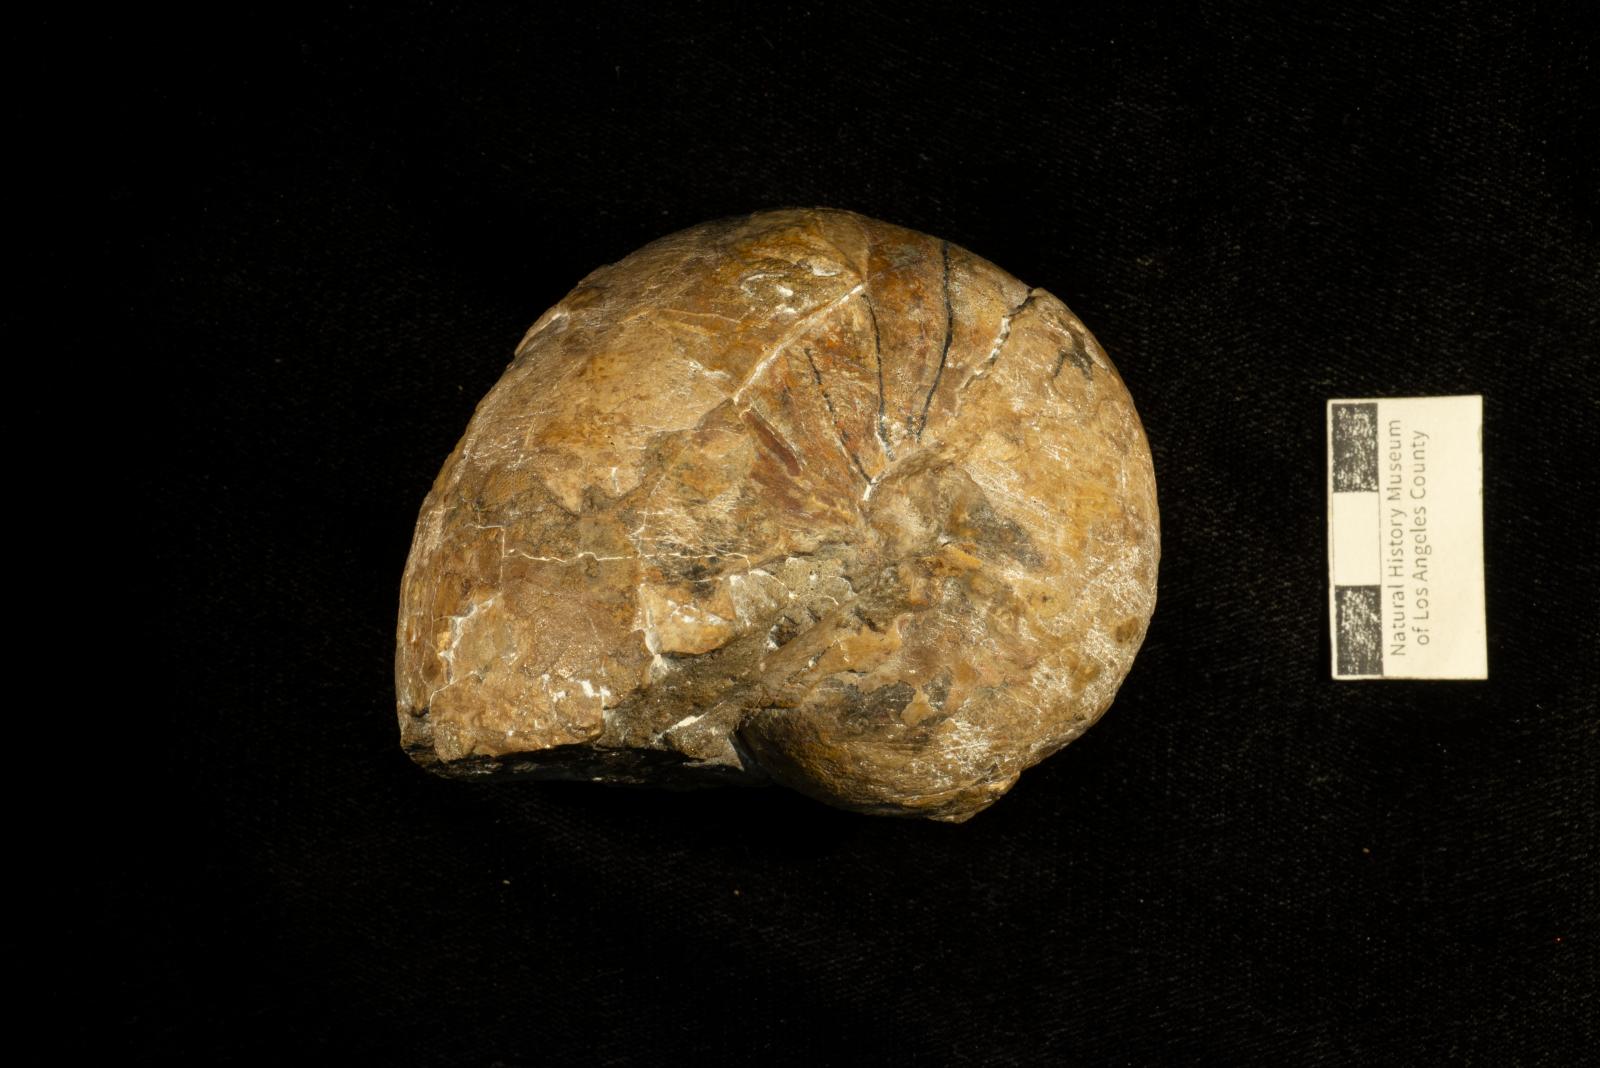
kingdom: Animalia
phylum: Mollusca
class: Cephalopoda
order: Nautilida
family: Nautilidae
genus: Eutrephoceras
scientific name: Eutrephoceras
